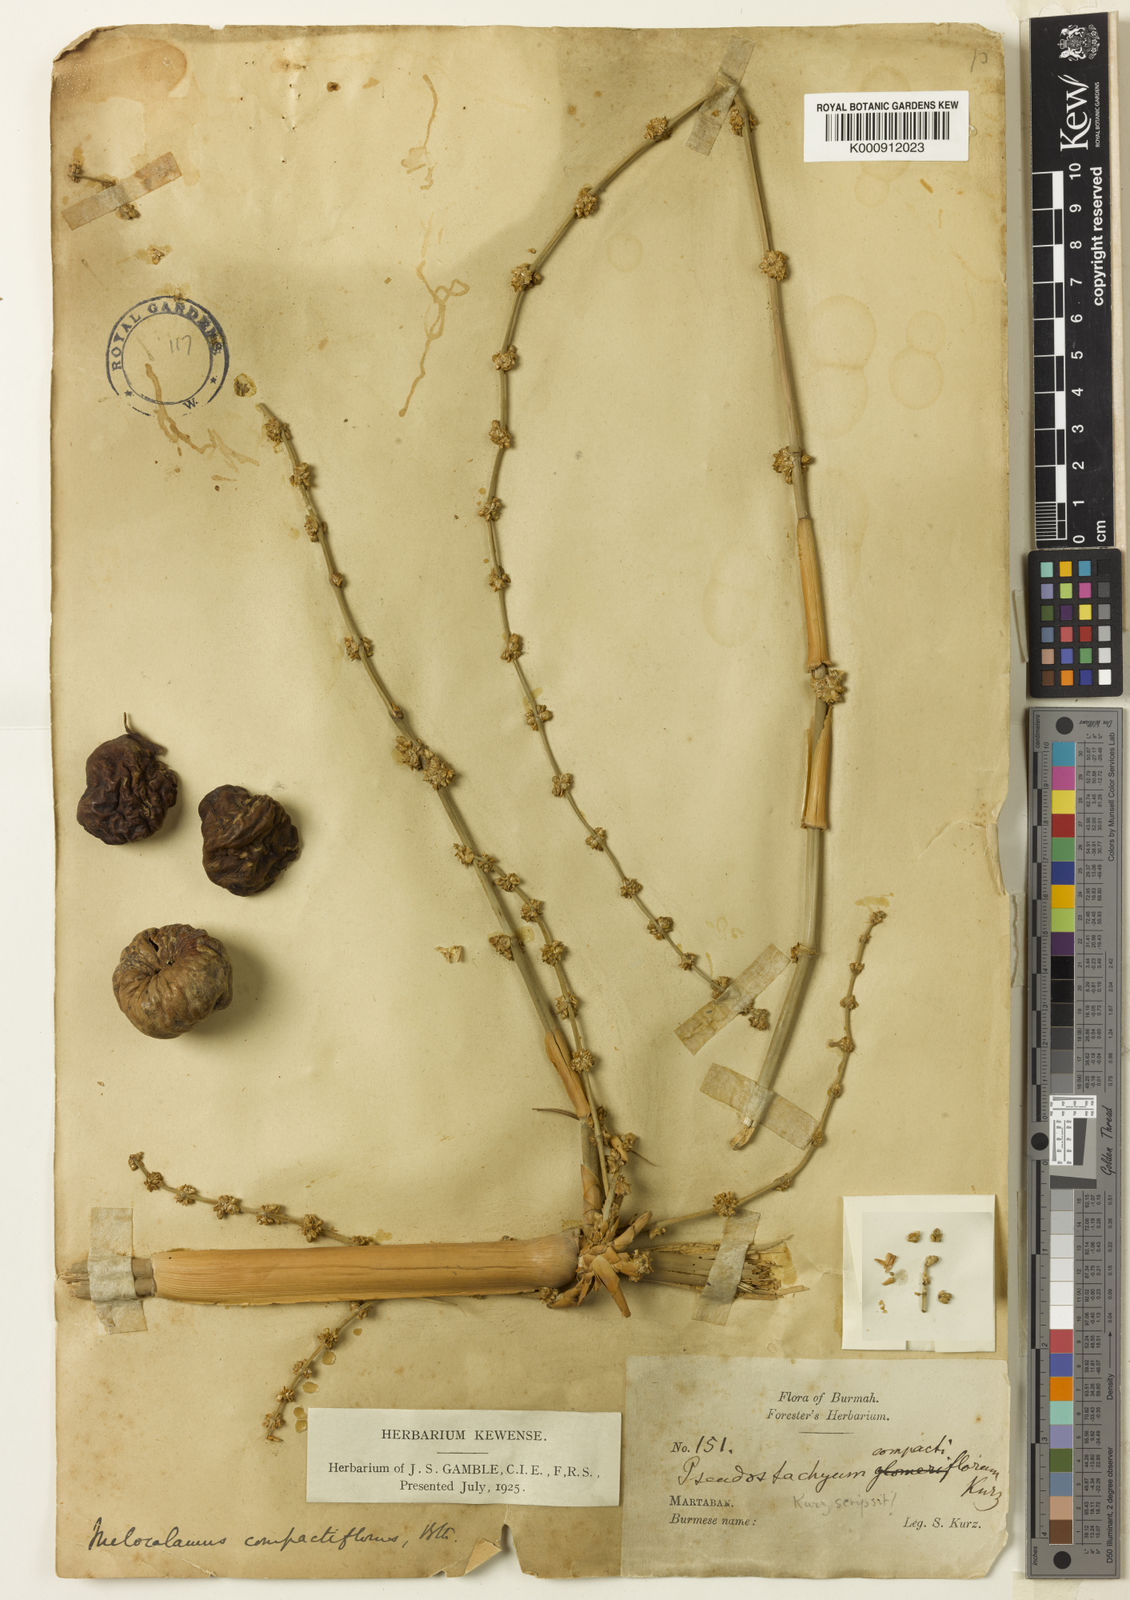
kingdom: Plantae
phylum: Tracheophyta
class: Liliopsida
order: Poales
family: Poaceae
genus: Melocalamus
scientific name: Melocalamus compactiflorus
